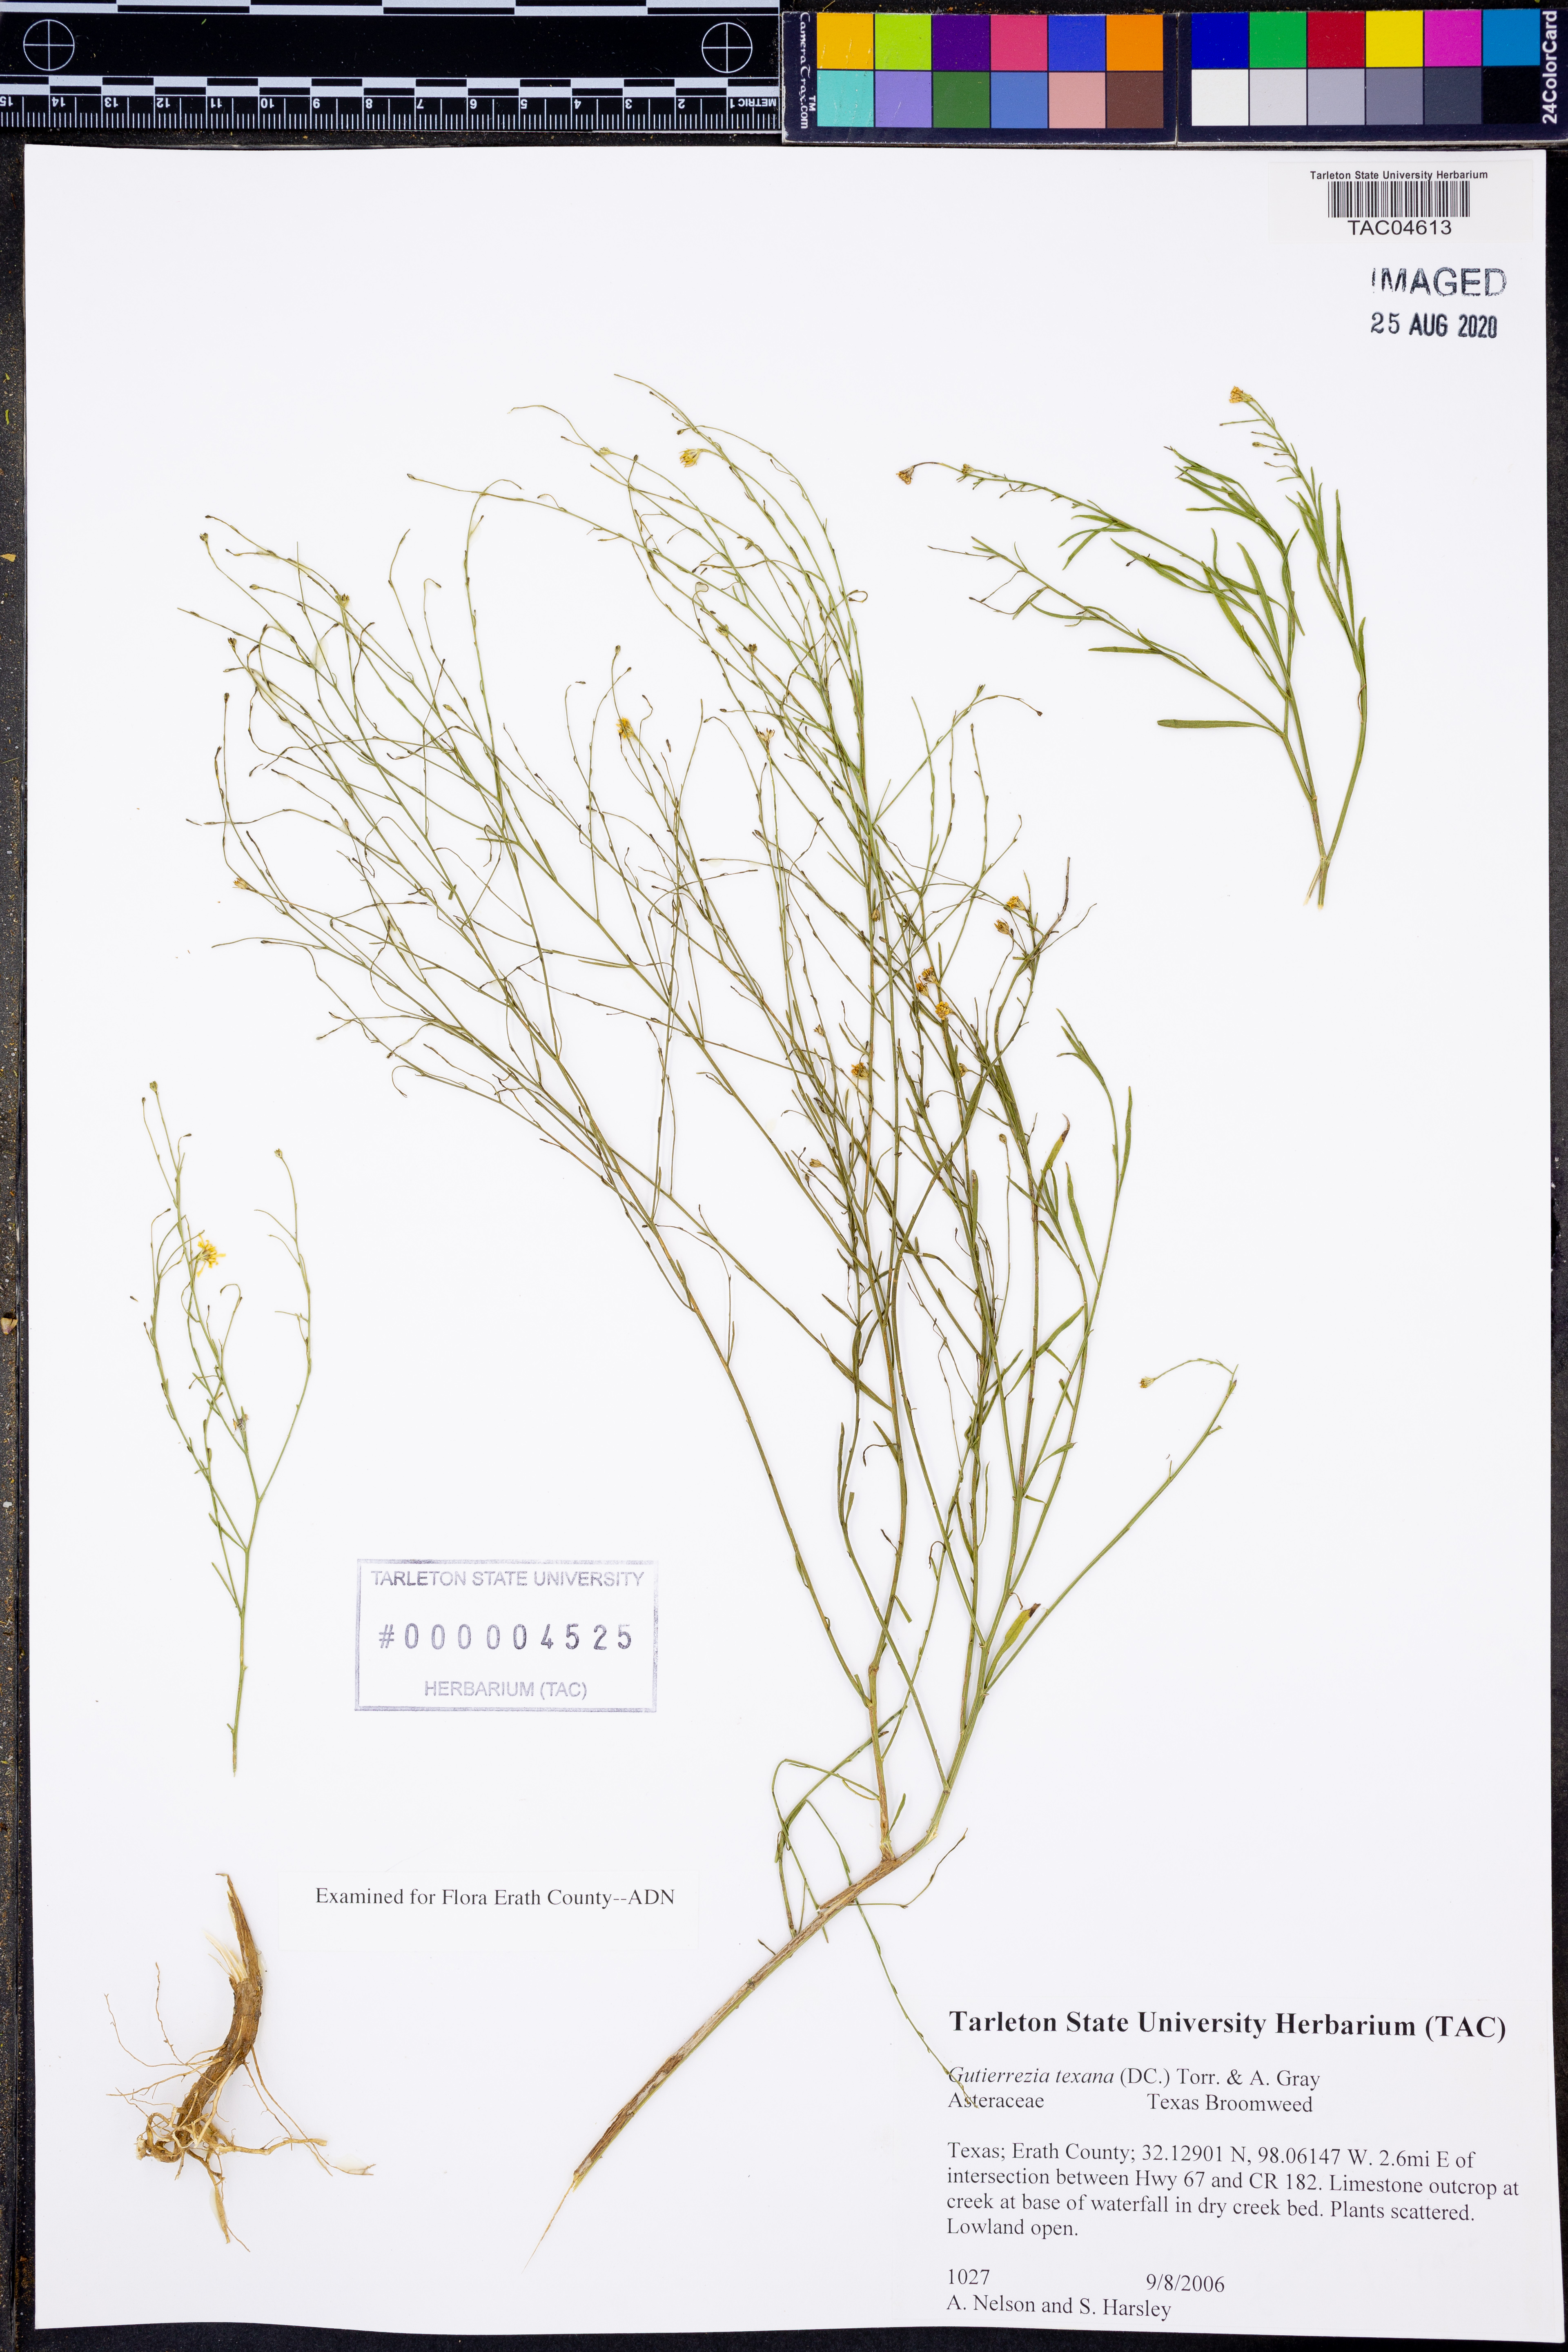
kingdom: Plantae
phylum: Tracheophyta
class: Magnoliopsida
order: Asterales
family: Asteraceae
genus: Gutierrezia
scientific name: Gutierrezia texana
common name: Texas snakeweed
